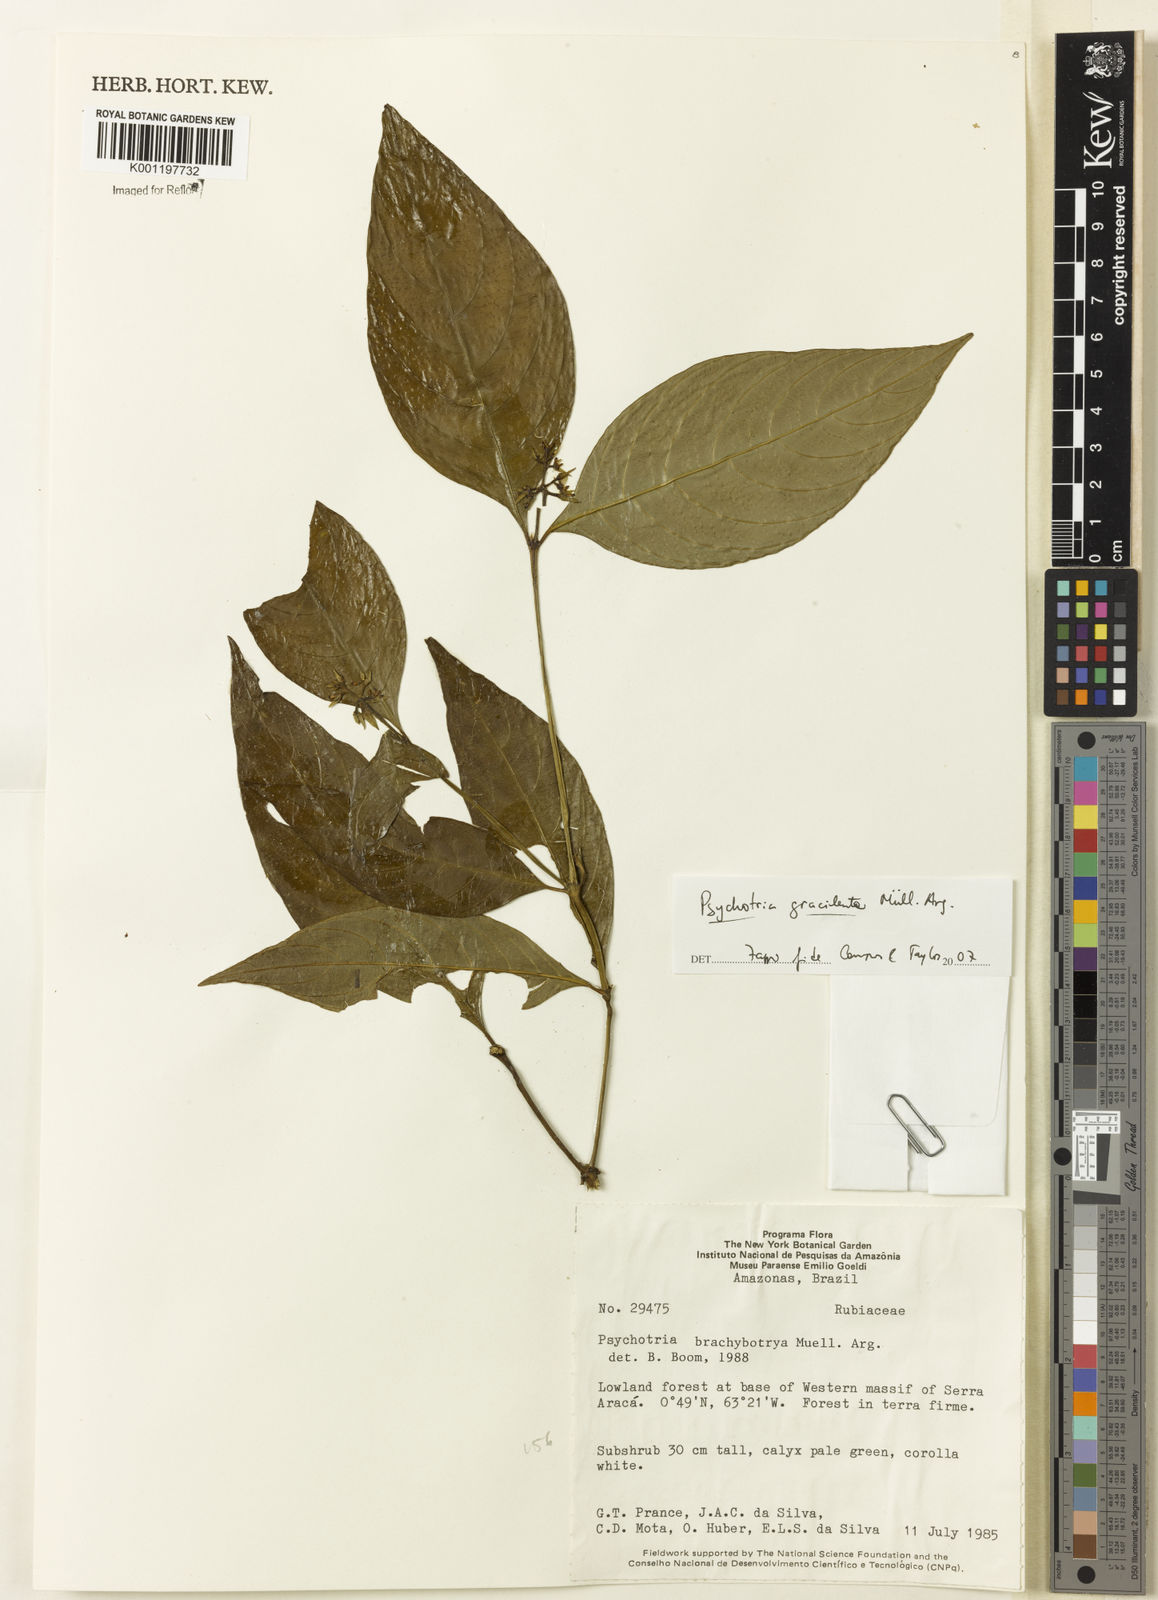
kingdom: Plantae
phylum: Tracheophyta
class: Magnoliopsida
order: Gentianales
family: Rubiaceae
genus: Psychotria
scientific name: Psychotria
